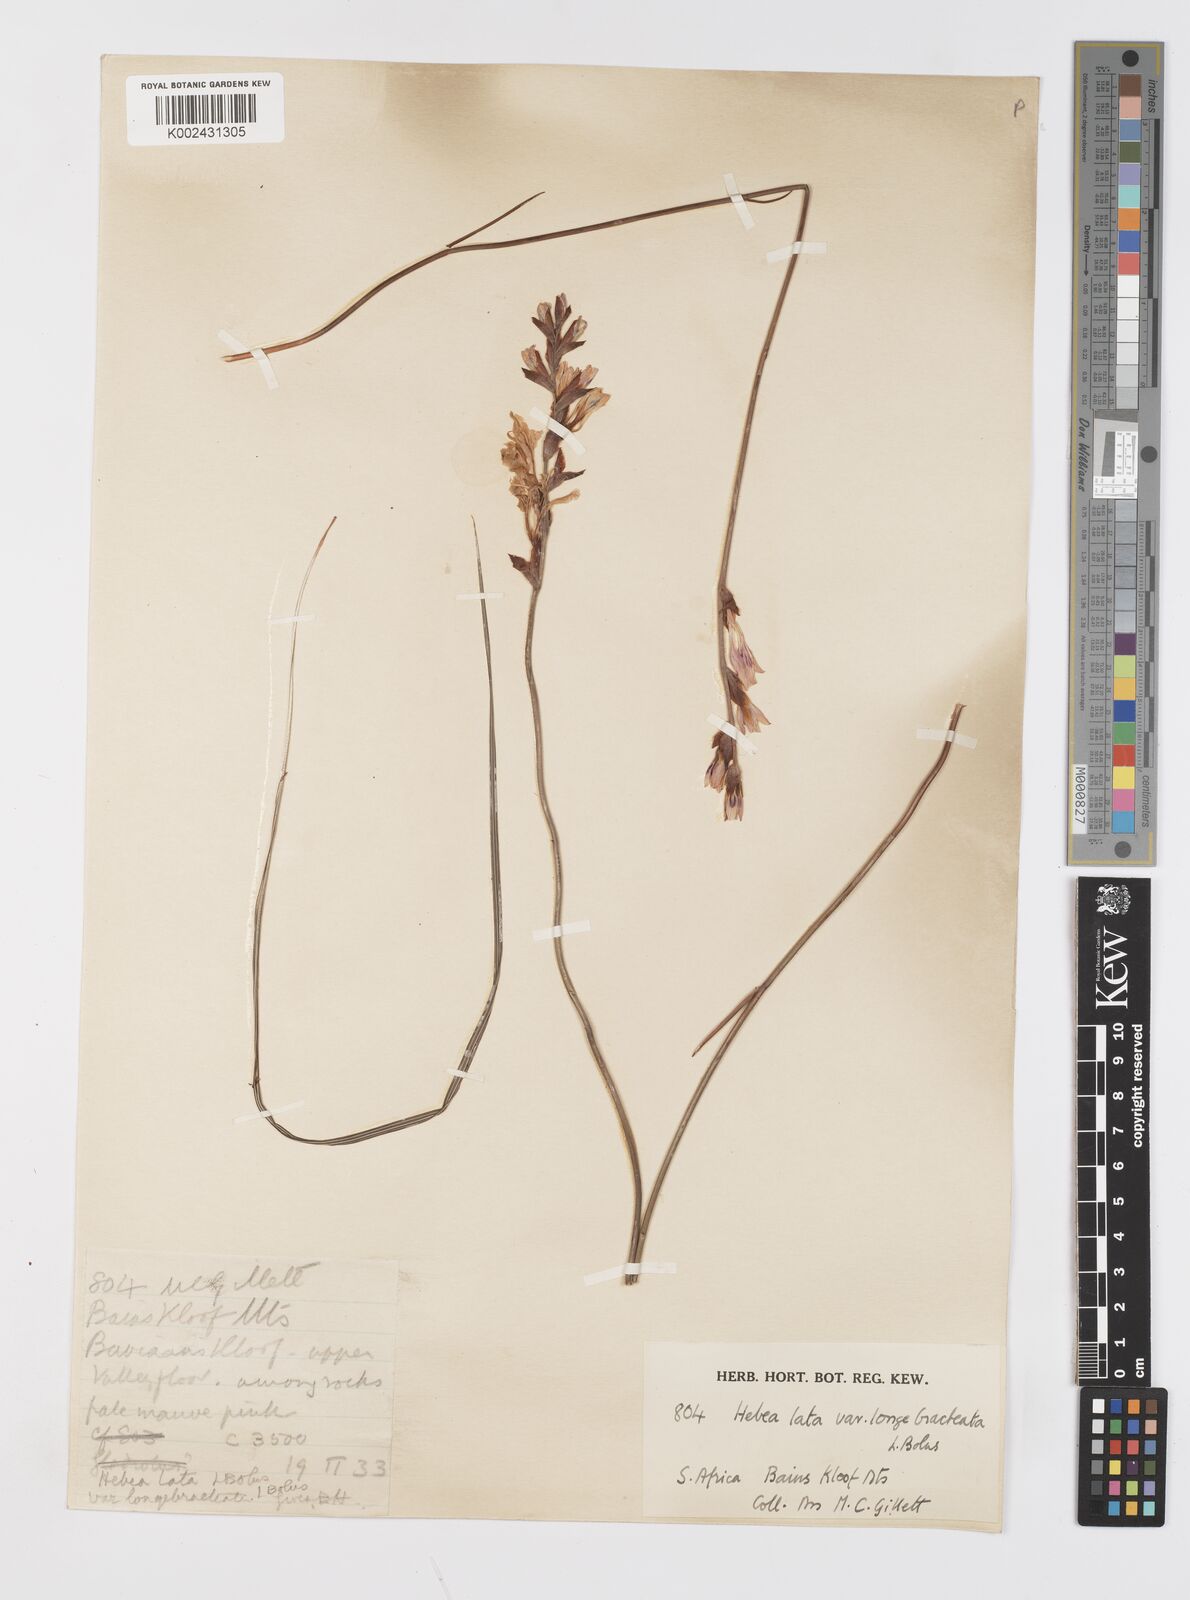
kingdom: Plantae
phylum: Tracheophyta
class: Liliopsida
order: Asparagales
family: Iridaceae
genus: Tritoniopsis
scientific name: Tritoniopsis lata
